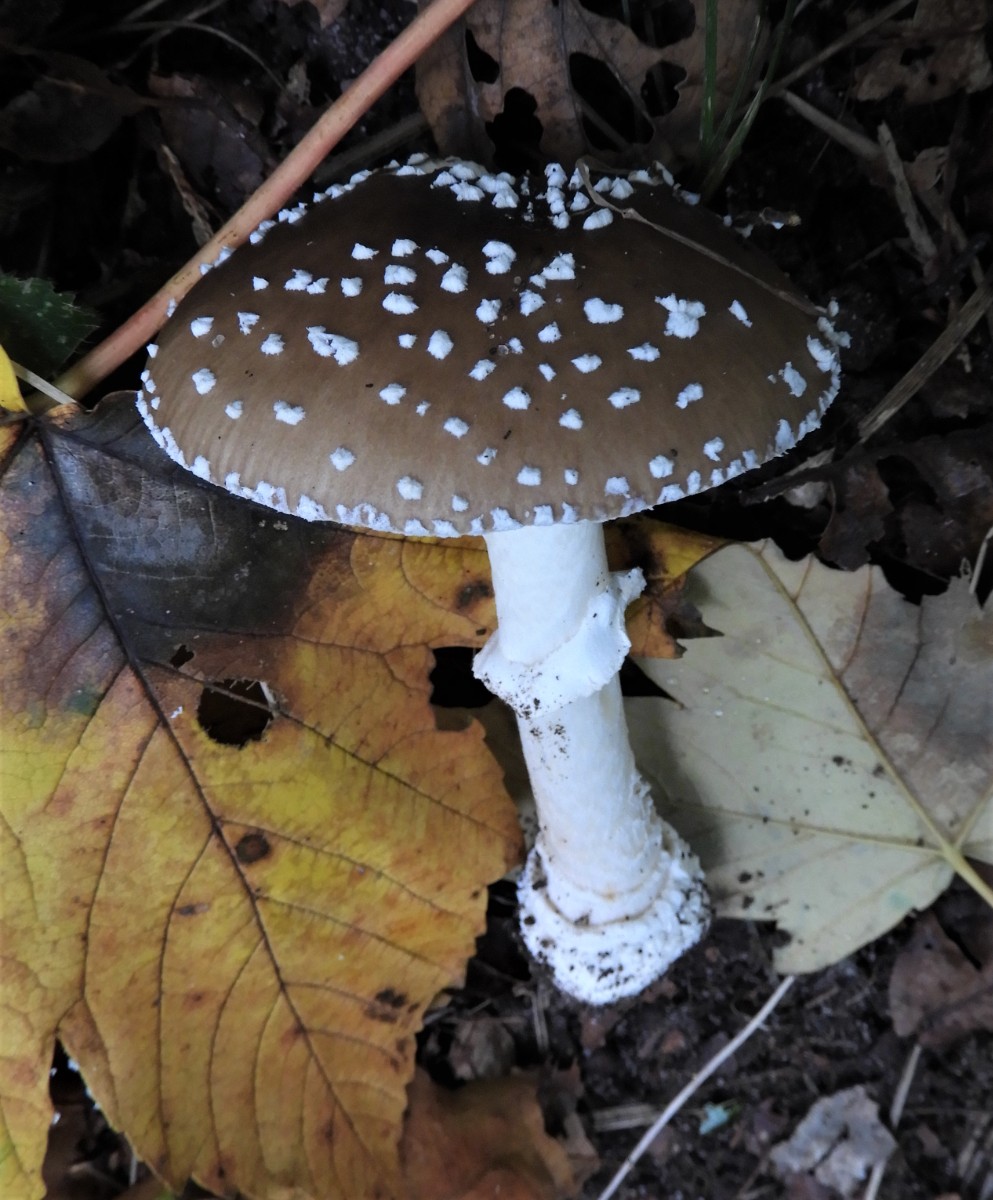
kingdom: Fungi
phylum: Basidiomycota
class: Agaricomycetes
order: Agaricales
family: Amanitaceae
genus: Amanita
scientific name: Amanita
